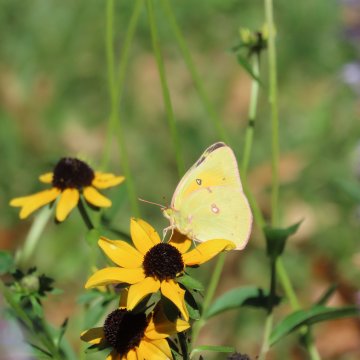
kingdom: Animalia
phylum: Arthropoda
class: Insecta
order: Lepidoptera
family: Pieridae
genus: Colias
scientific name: Colias eurytheme
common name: Orange Sulphur
